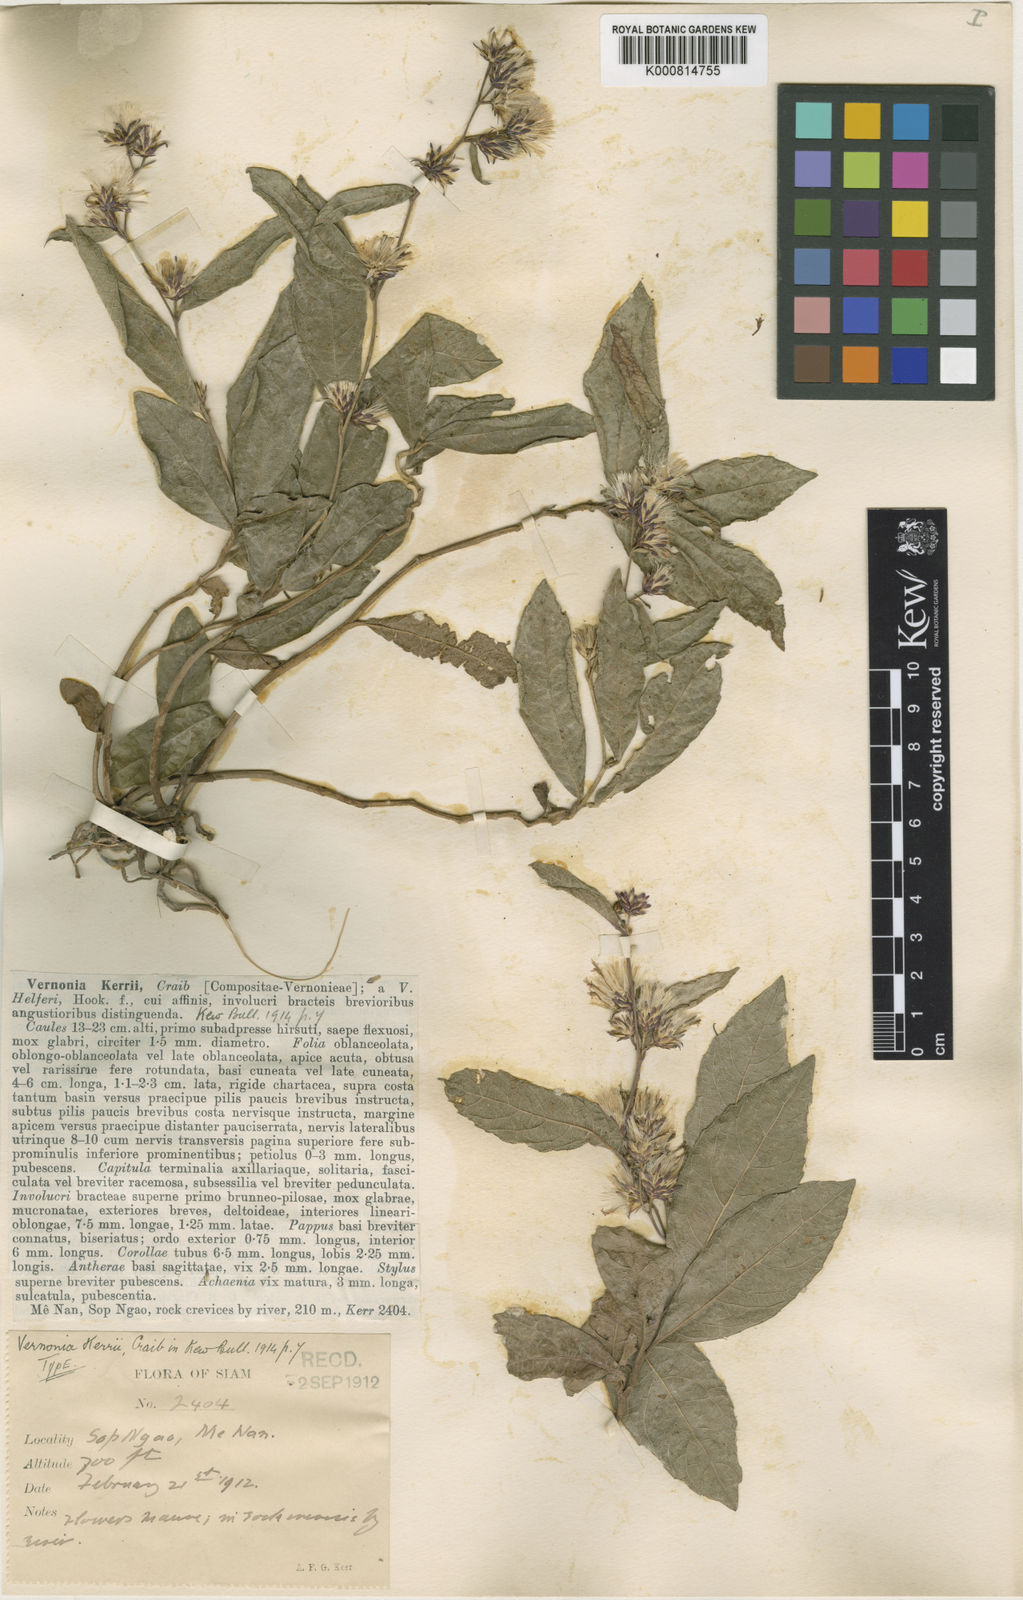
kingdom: Plantae
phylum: Tracheophyta
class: Magnoliopsida
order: Asterales
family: Asteraceae
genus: Acilepis
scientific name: Acilepis kerrii
